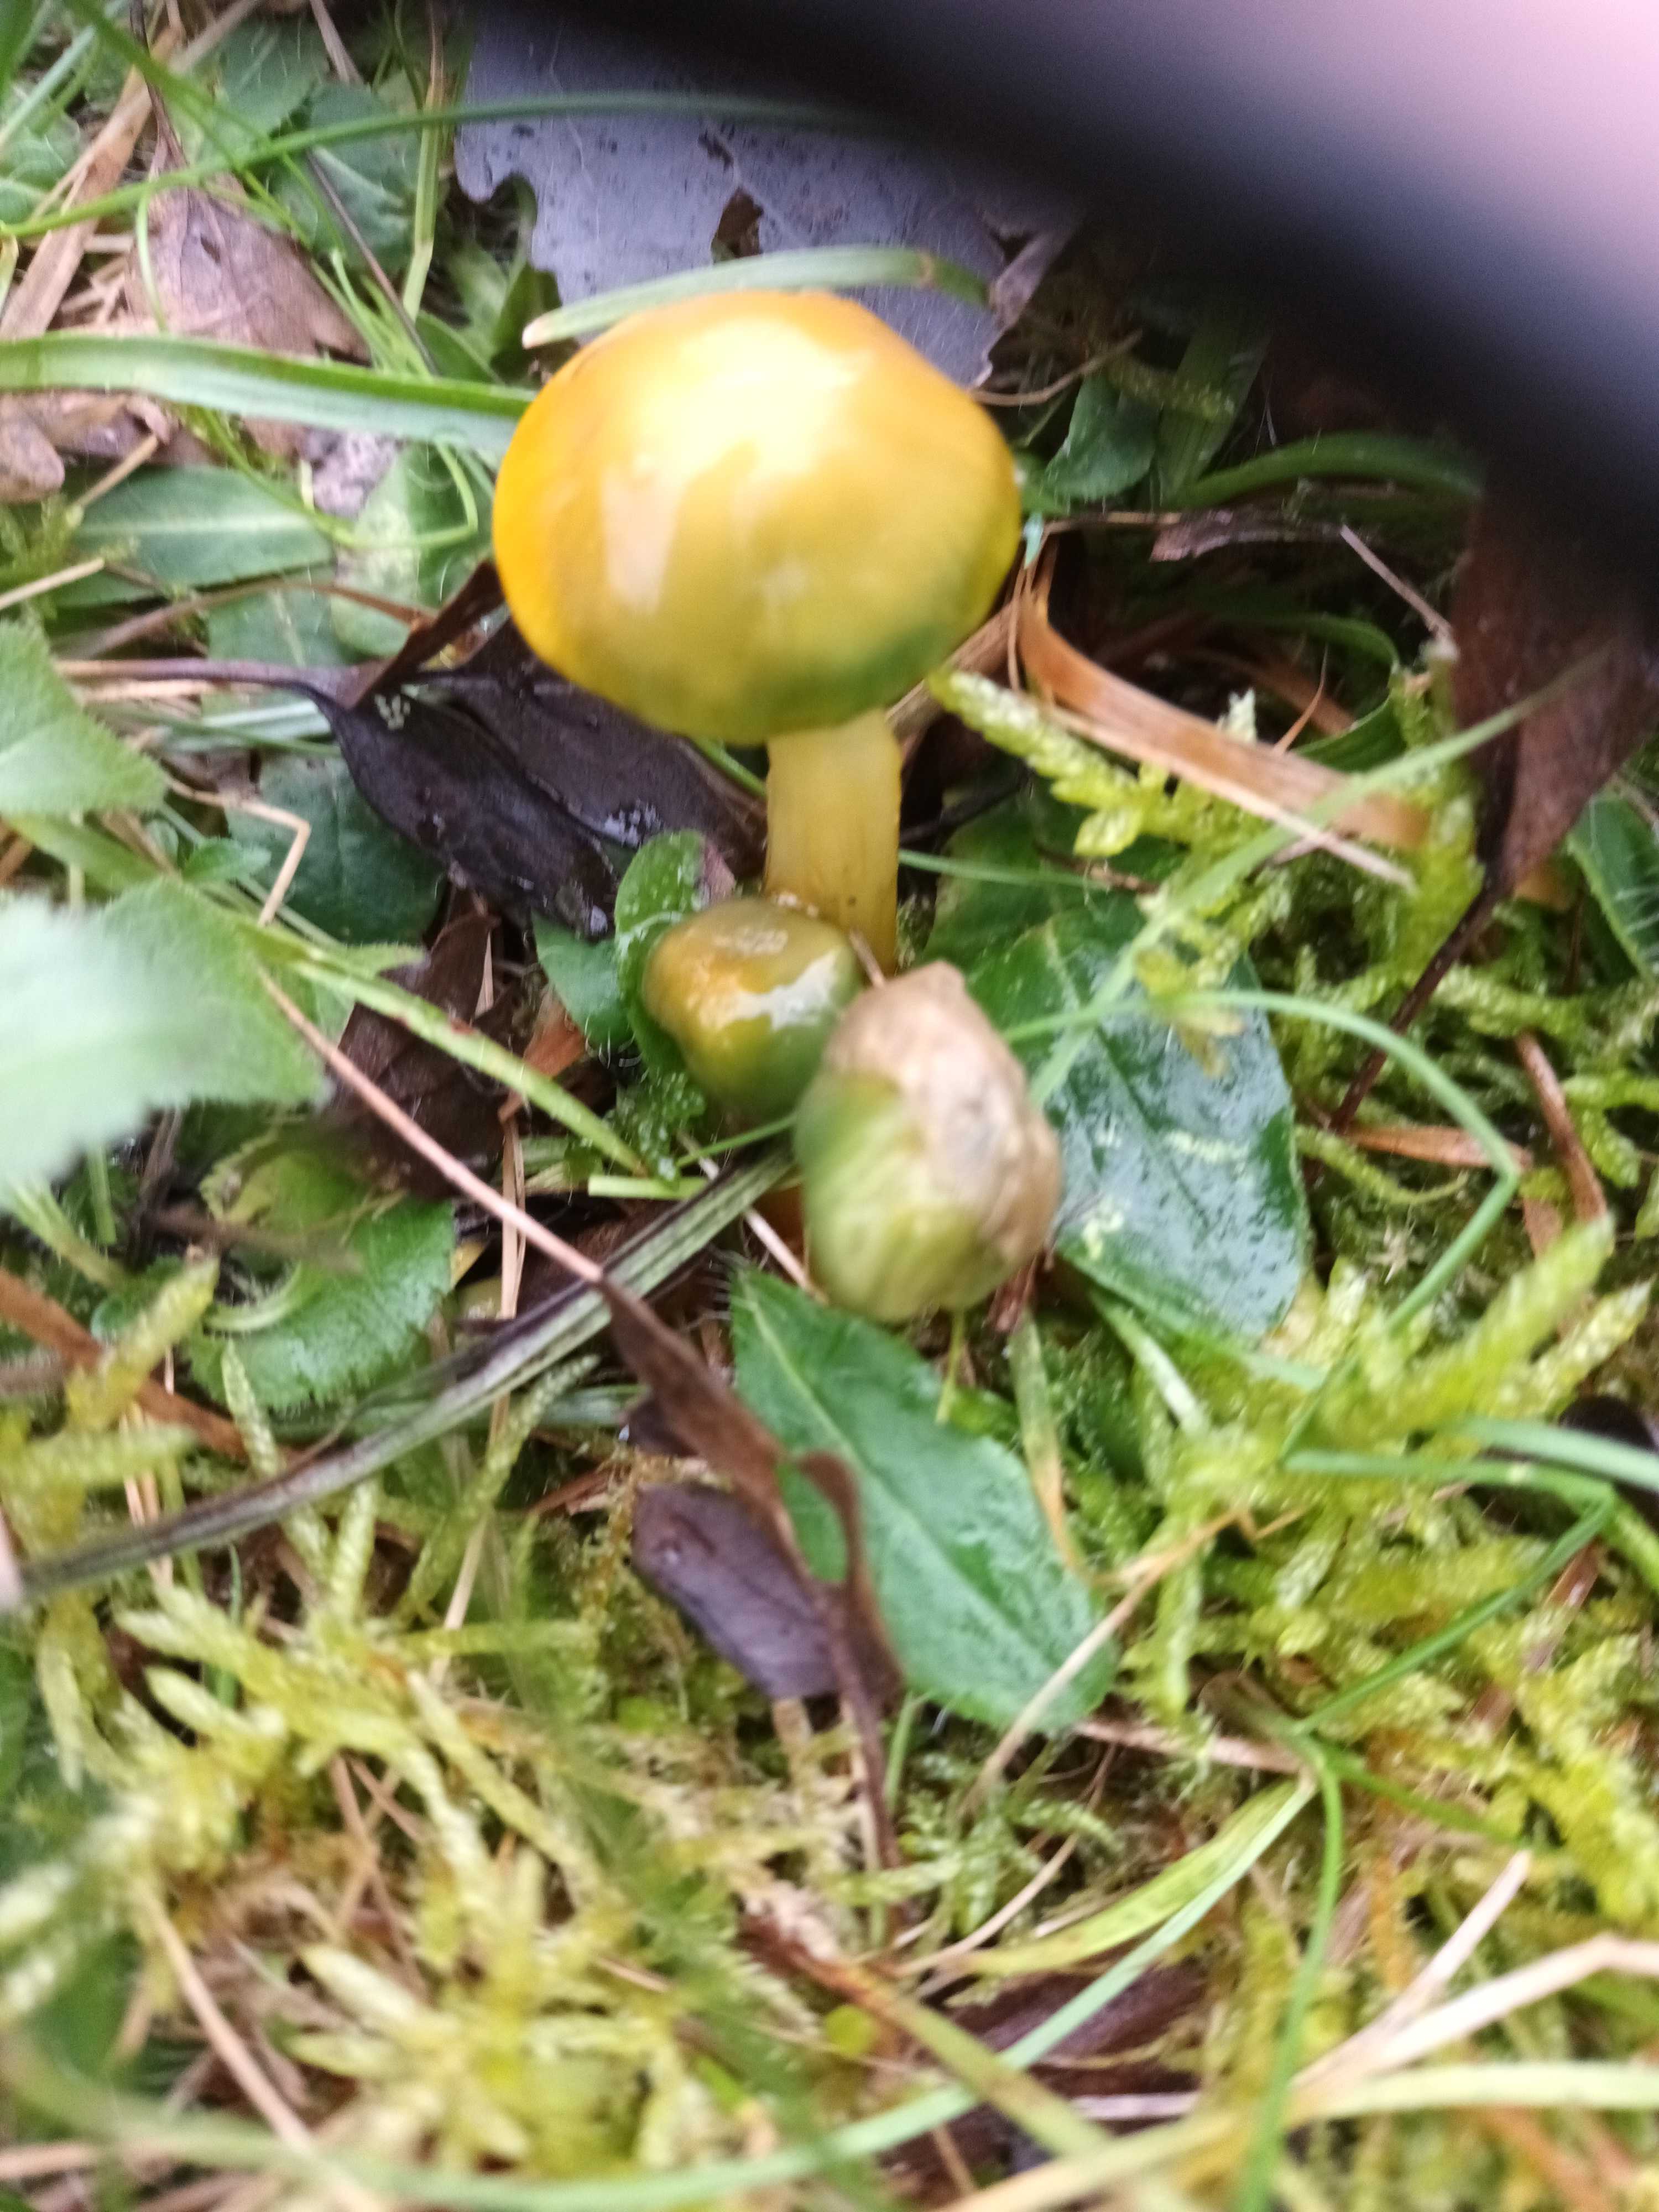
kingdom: Fungi
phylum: Basidiomycota
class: Agaricomycetes
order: Agaricales
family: Hygrophoraceae
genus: Gliophorus
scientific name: Gliophorus psittacinus
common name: papegøje-vokshat
